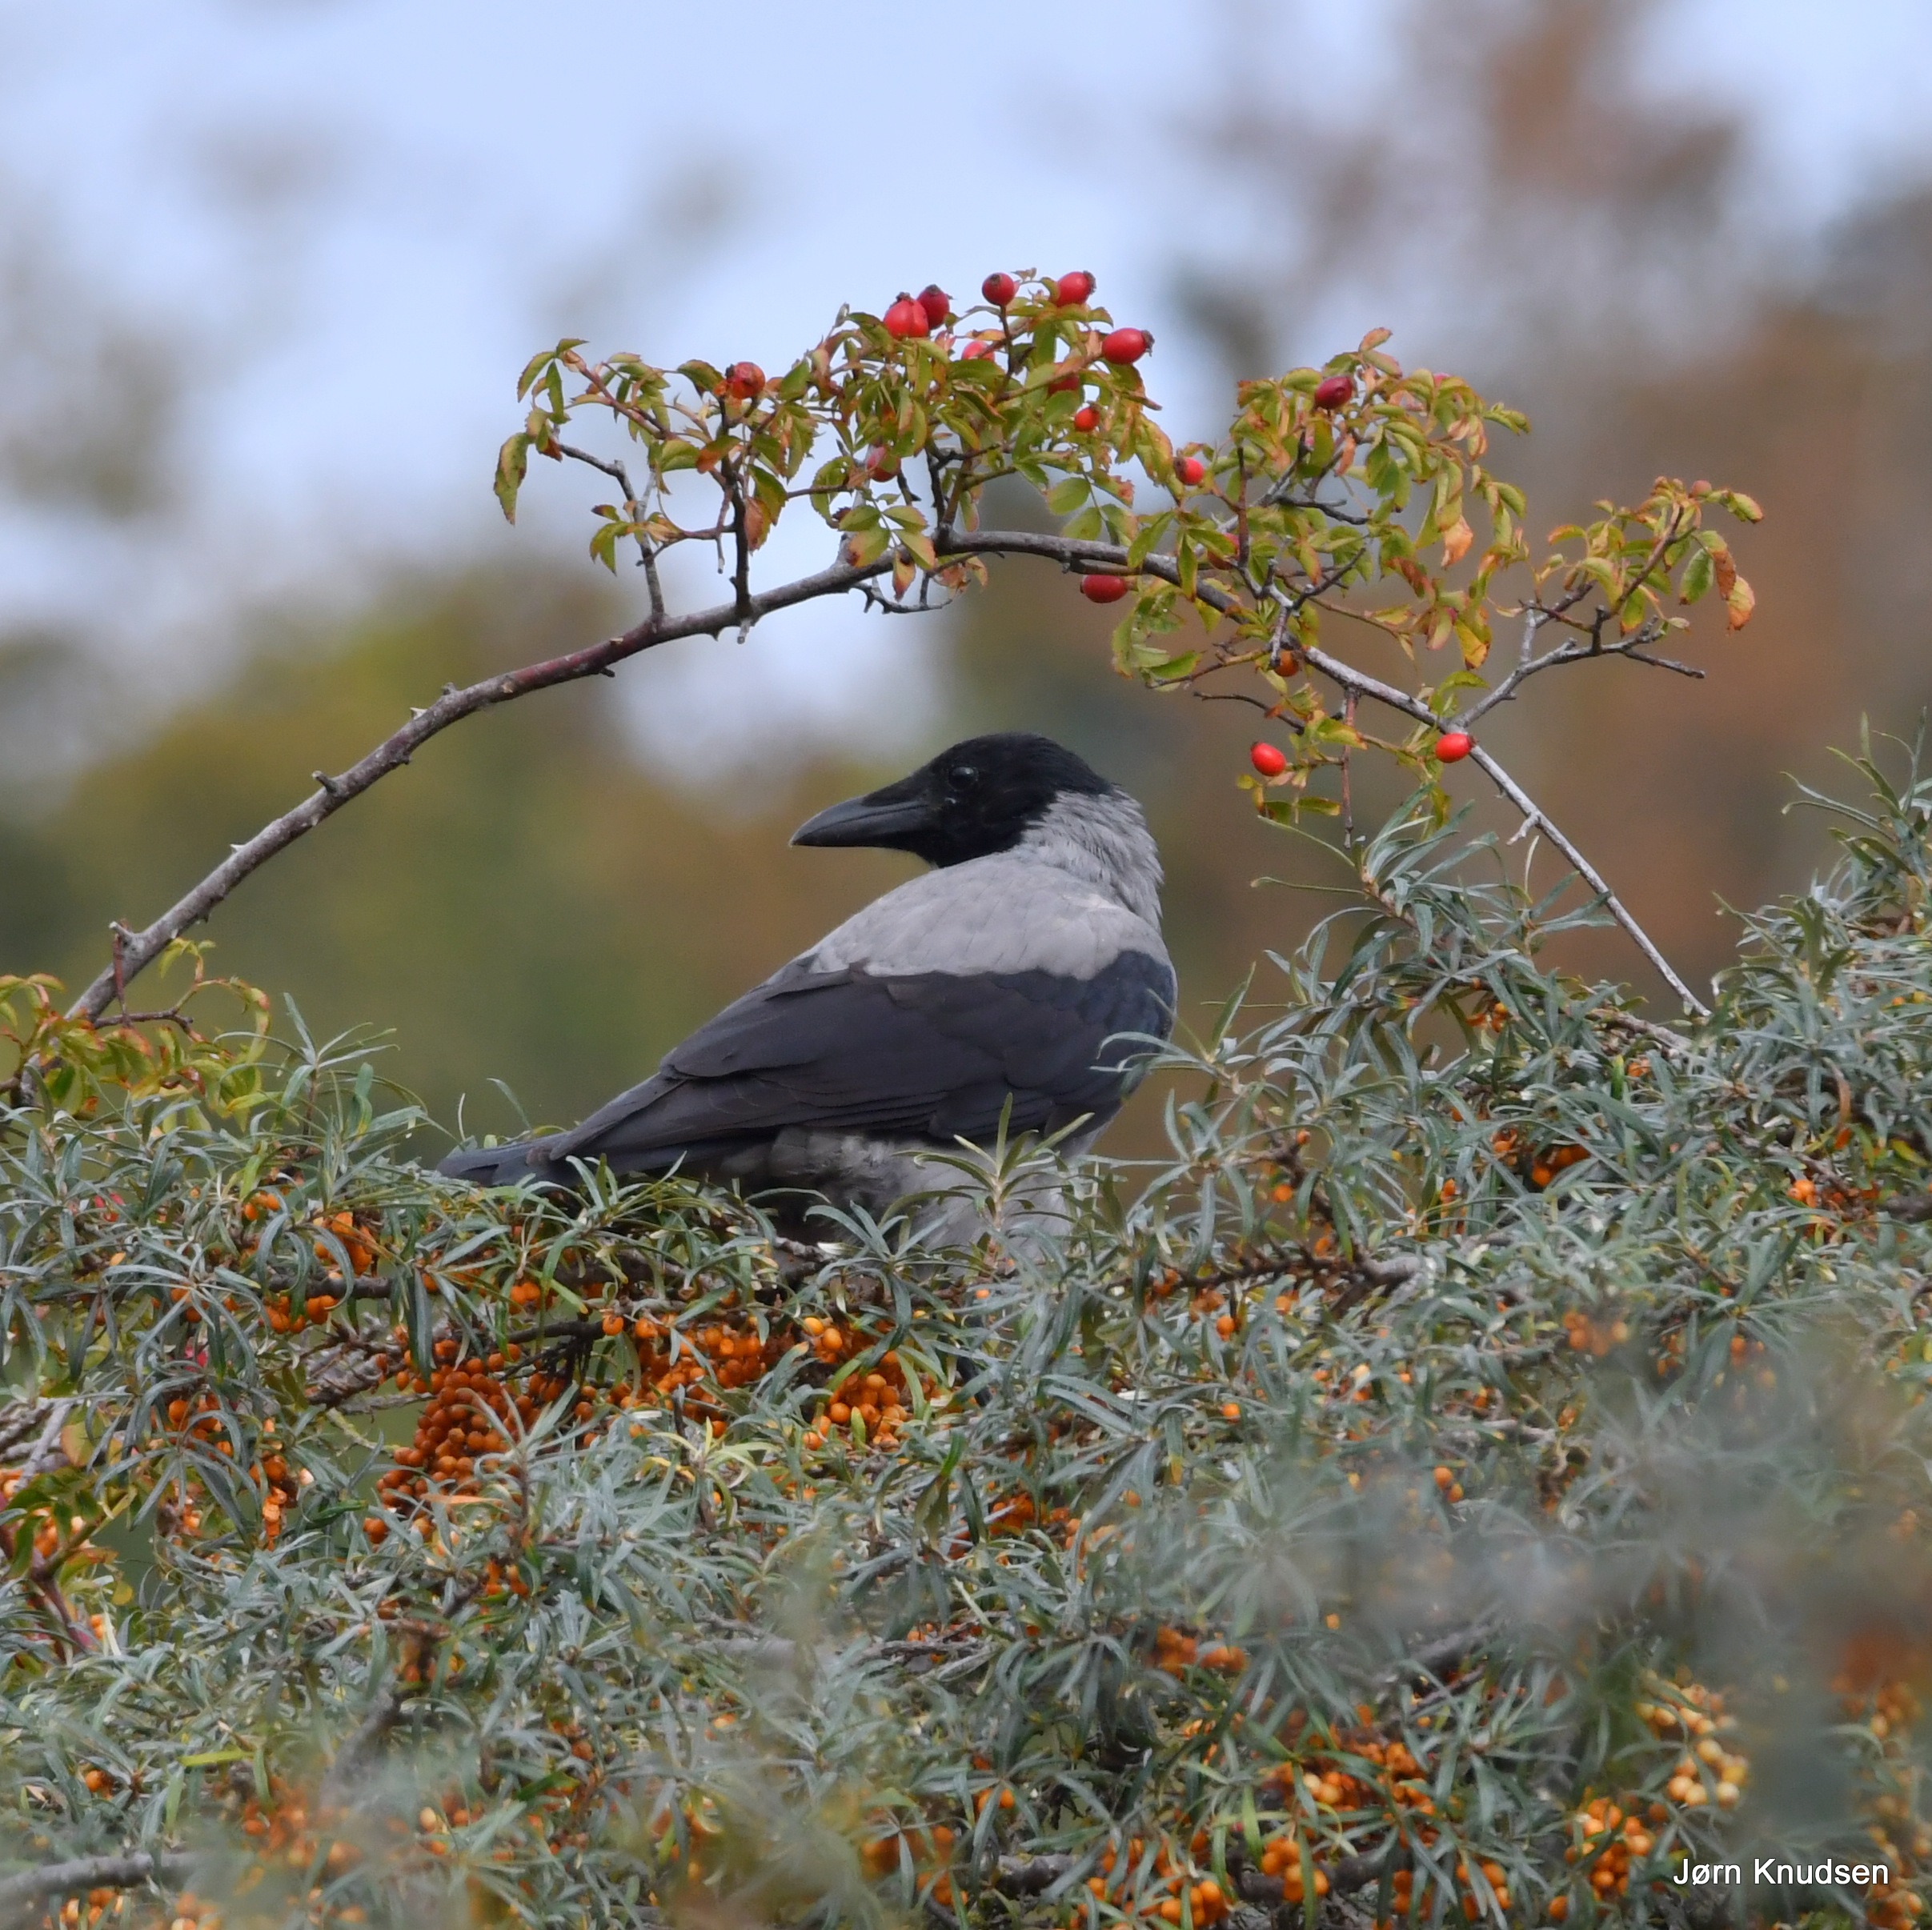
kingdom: Animalia
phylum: Chordata
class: Aves
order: Passeriformes
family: Corvidae
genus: Corvus
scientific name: Corvus cornix
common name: Gråkrage
